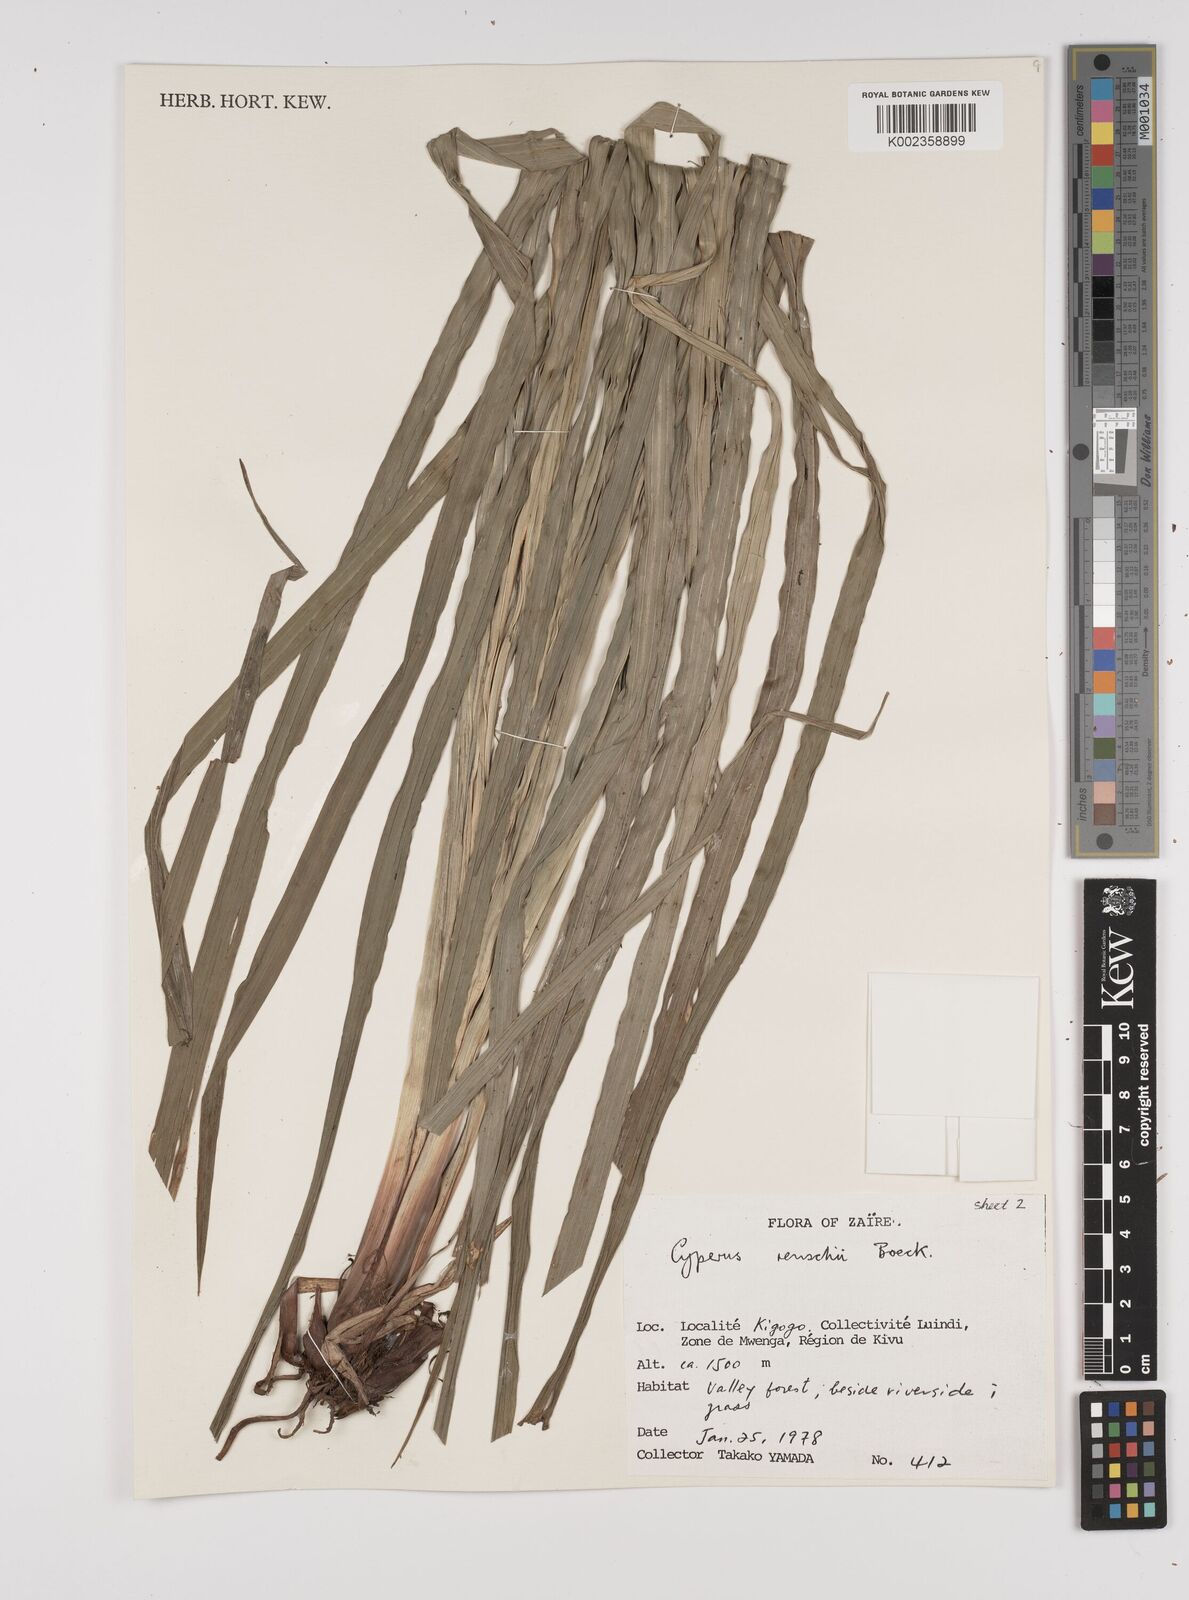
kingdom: Plantae
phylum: Tracheophyta
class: Liliopsida
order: Poales
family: Cyperaceae
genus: Cyperus
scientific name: Cyperus renschii
